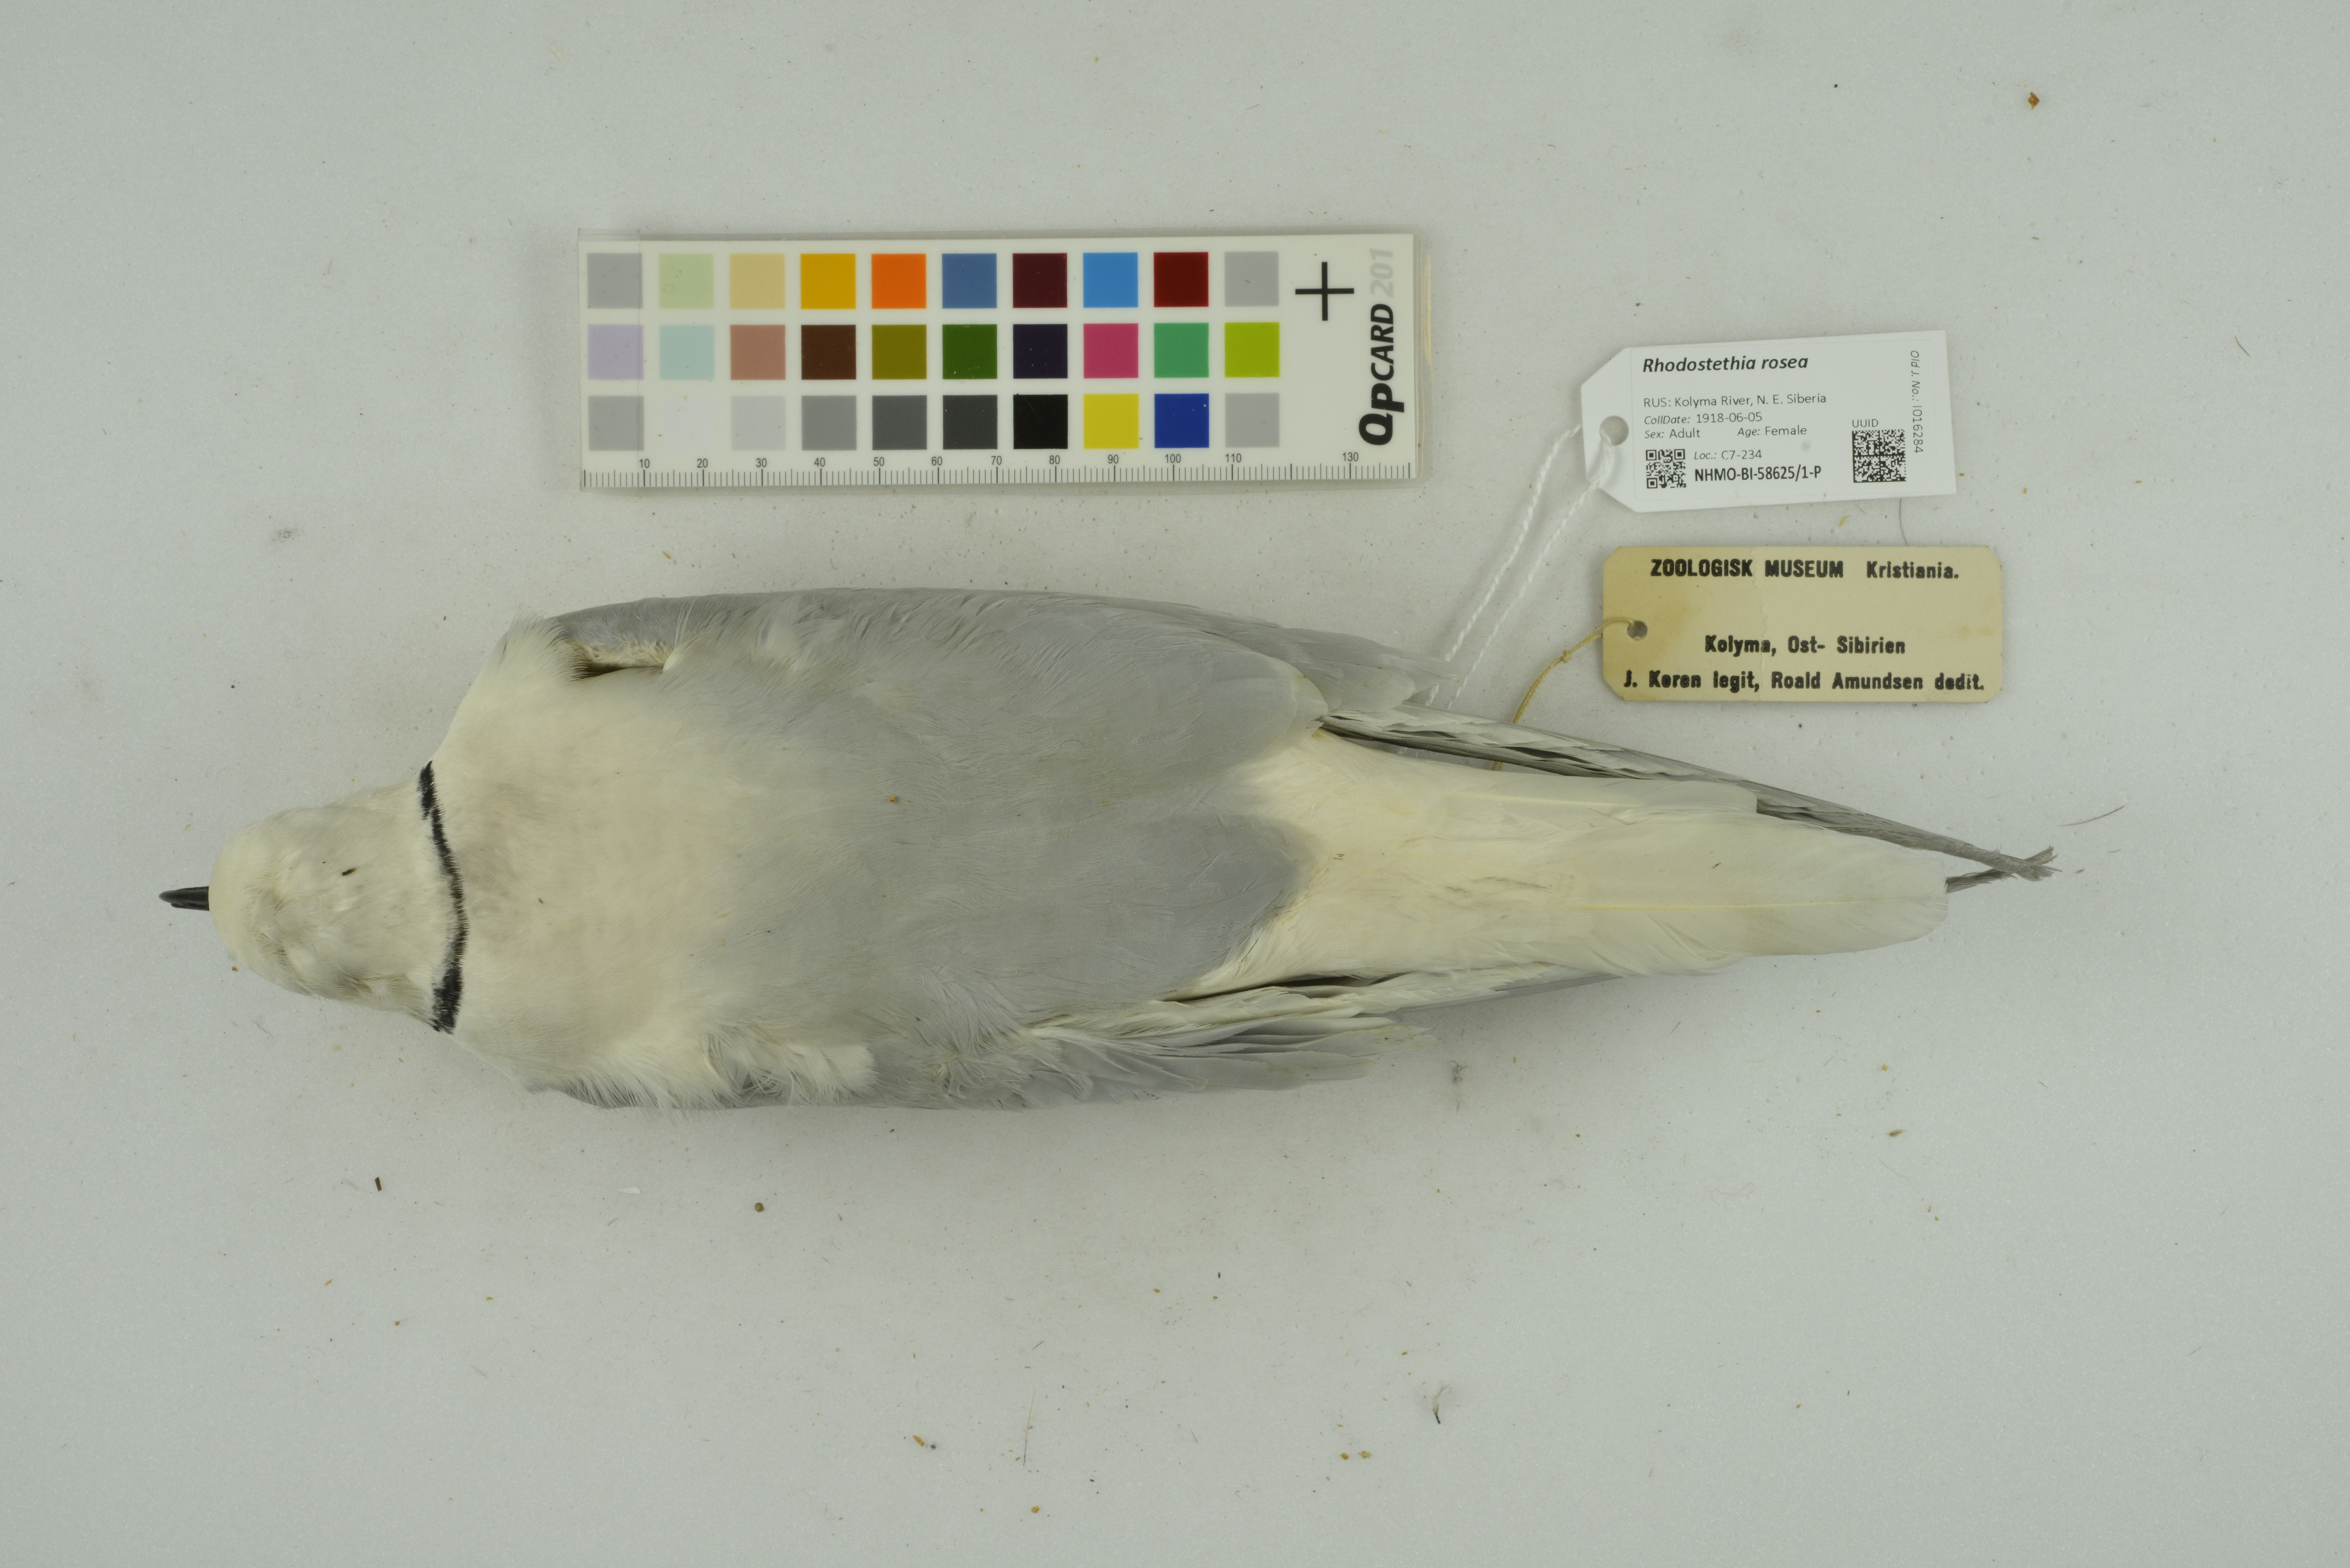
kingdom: Animalia
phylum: Chordata
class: Aves
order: Charadriiformes
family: Laridae
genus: Rhodostethia
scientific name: Rhodostethia rosea
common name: Ross's gull
